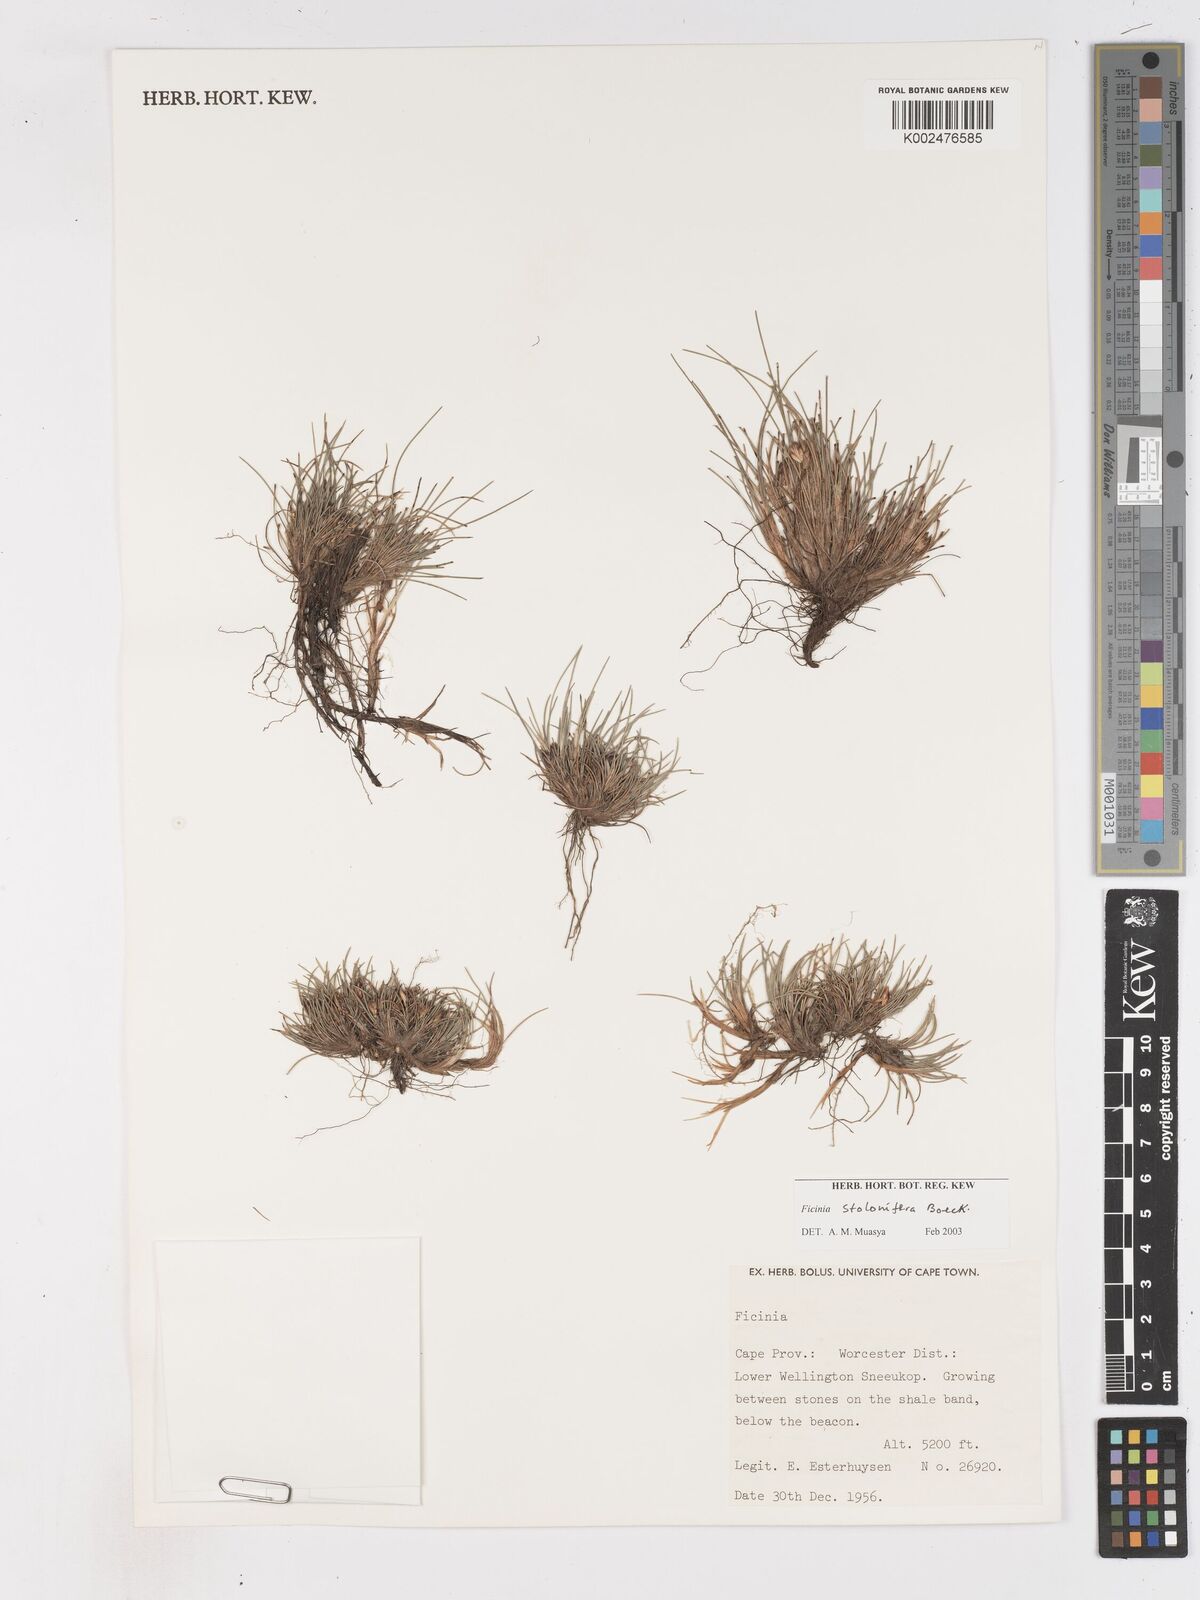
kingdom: Plantae
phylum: Tracheophyta
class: Liliopsida
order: Poales
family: Cyperaceae
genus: Ficinia
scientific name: Ficinia
